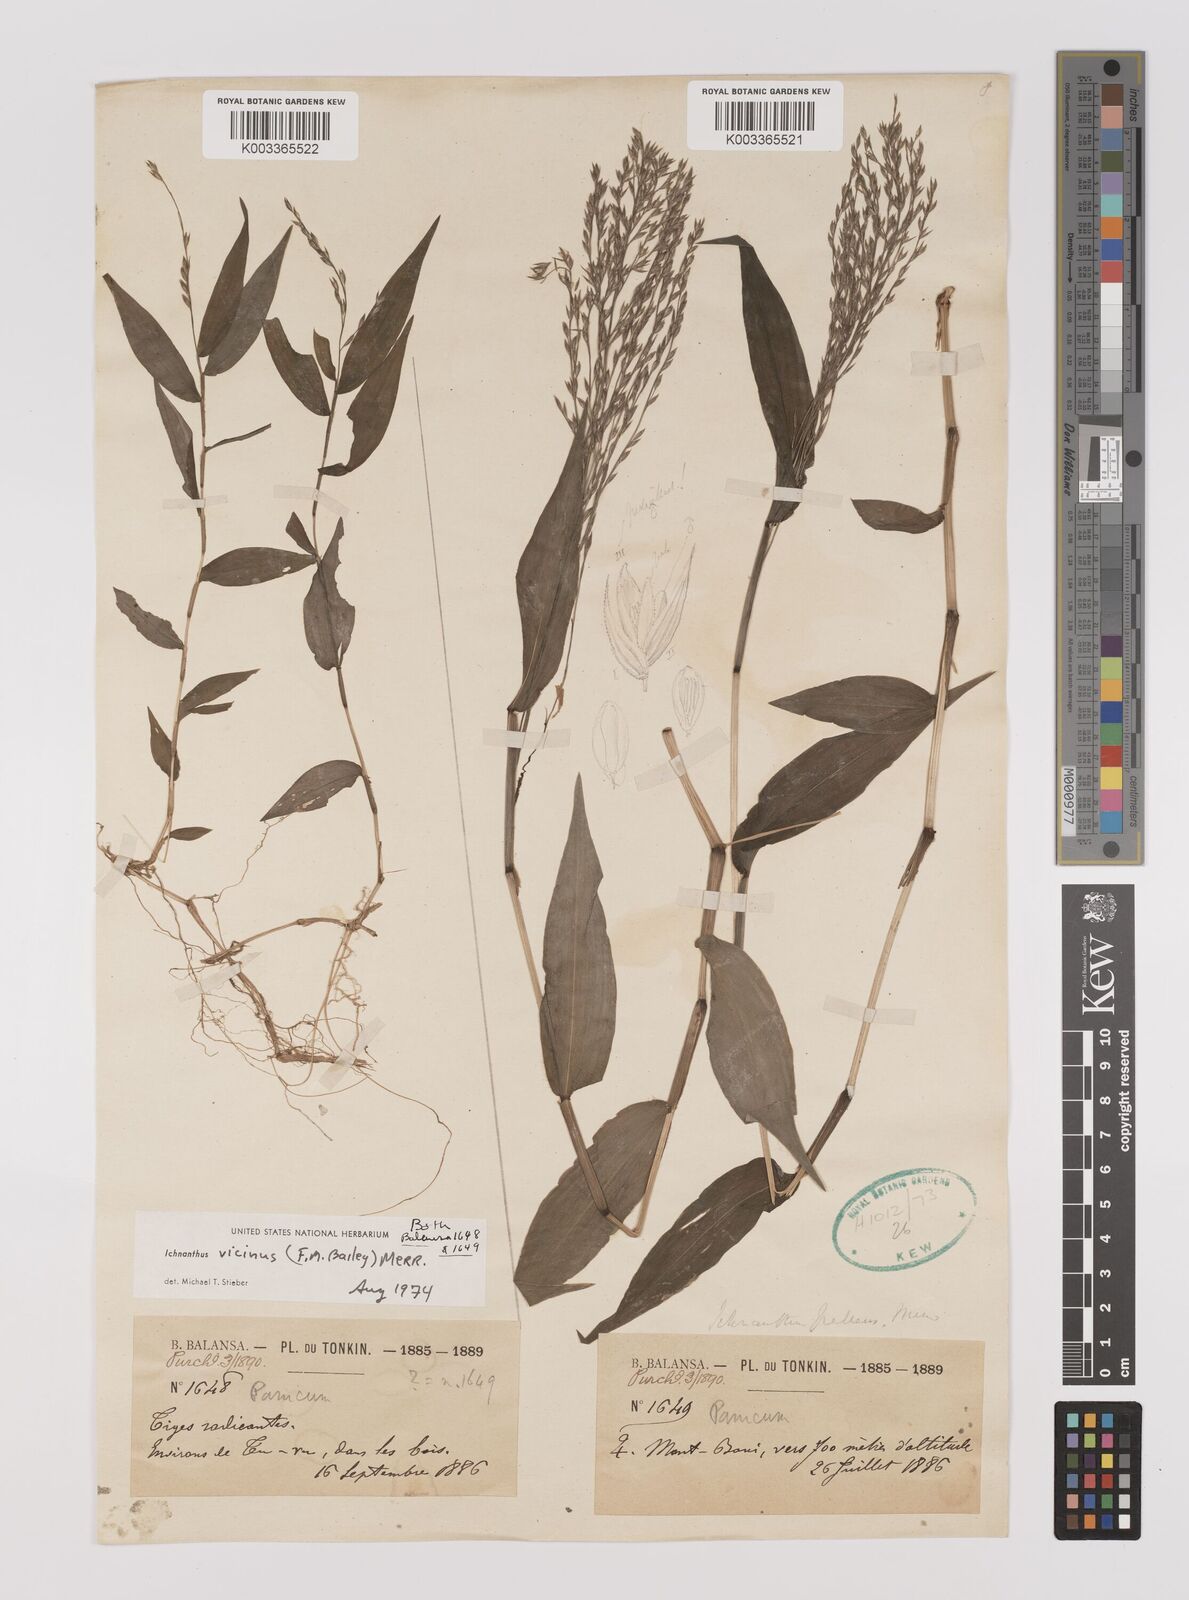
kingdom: Plantae
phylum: Tracheophyta
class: Liliopsida
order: Poales
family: Poaceae
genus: Ichnanthus
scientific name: Ichnanthus pallens
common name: Water grass
